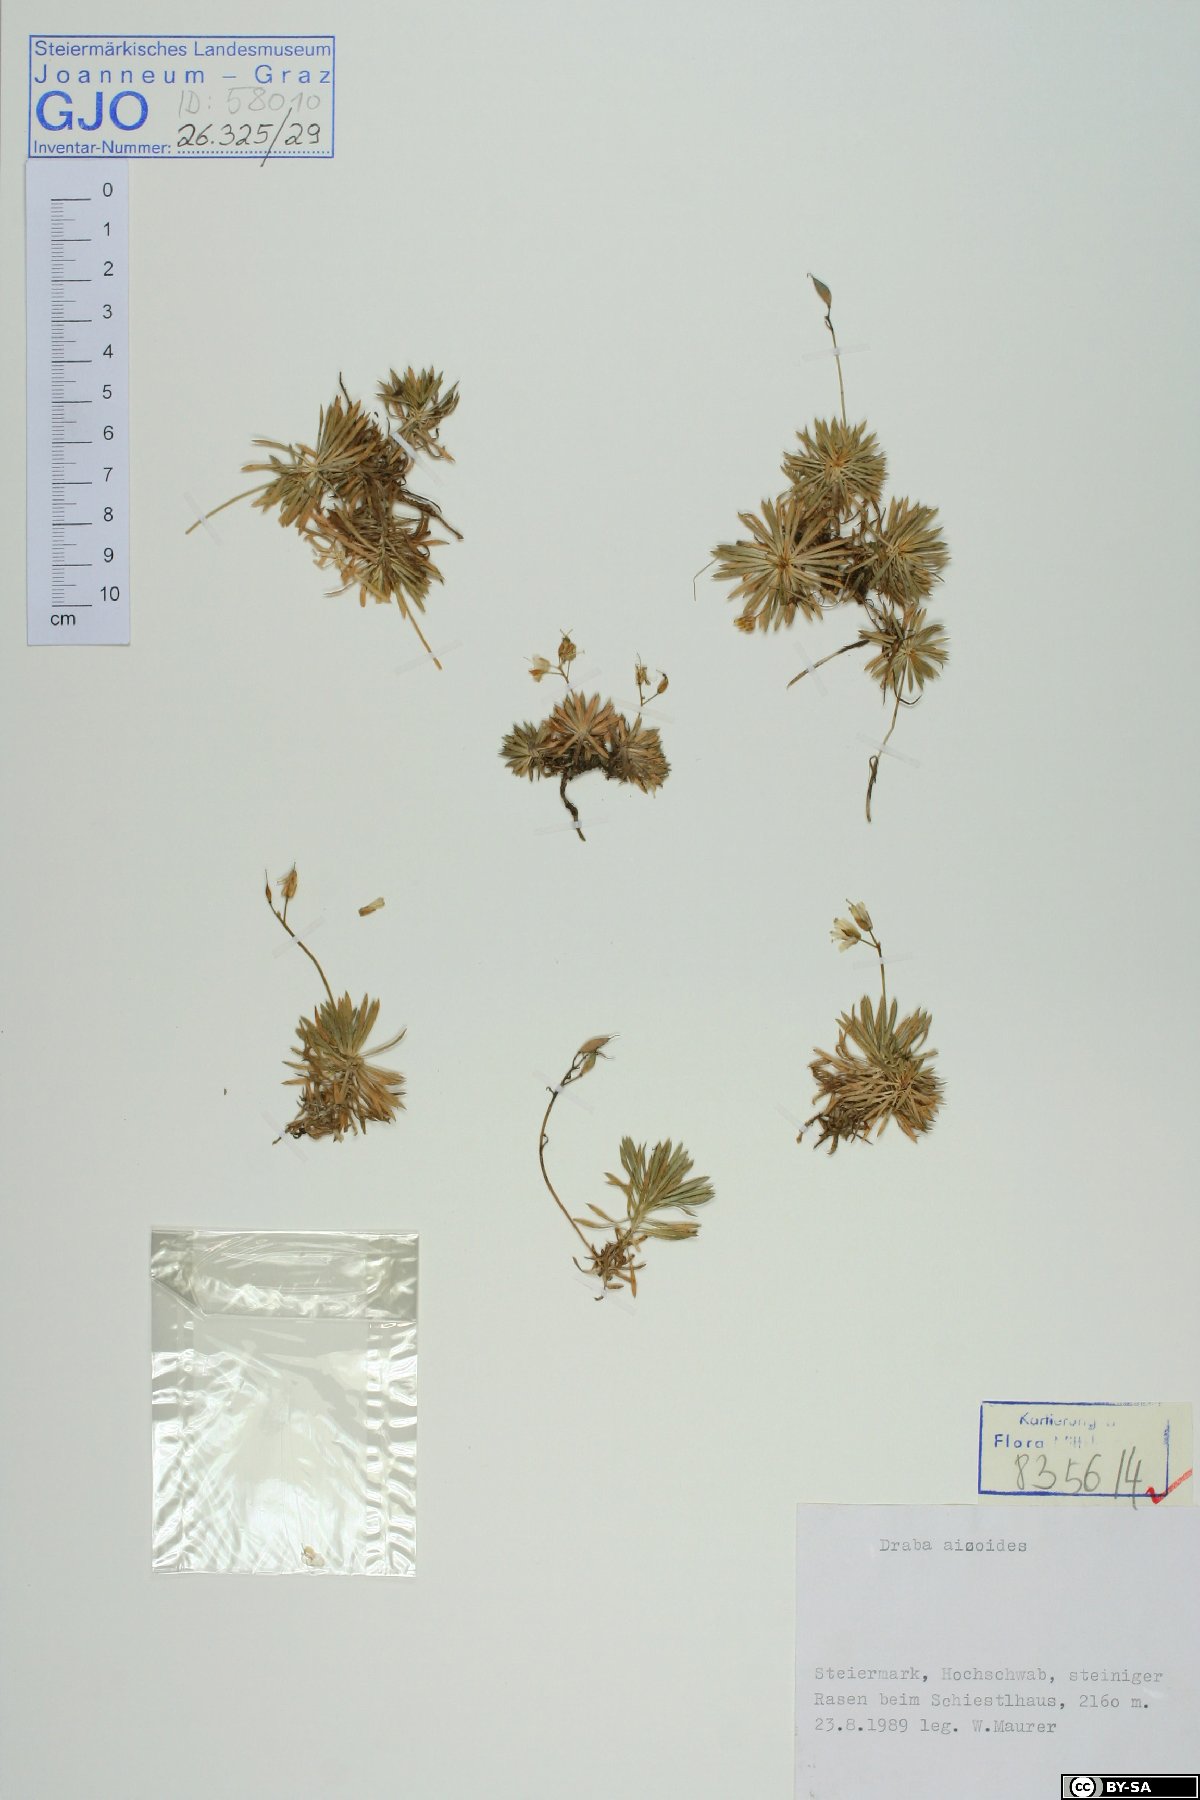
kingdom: Plantae
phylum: Tracheophyta
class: Magnoliopsida
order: Brassicales
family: Brassicaceae
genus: Draba
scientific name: Draba aizoides
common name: Yellow whitlowgrass
